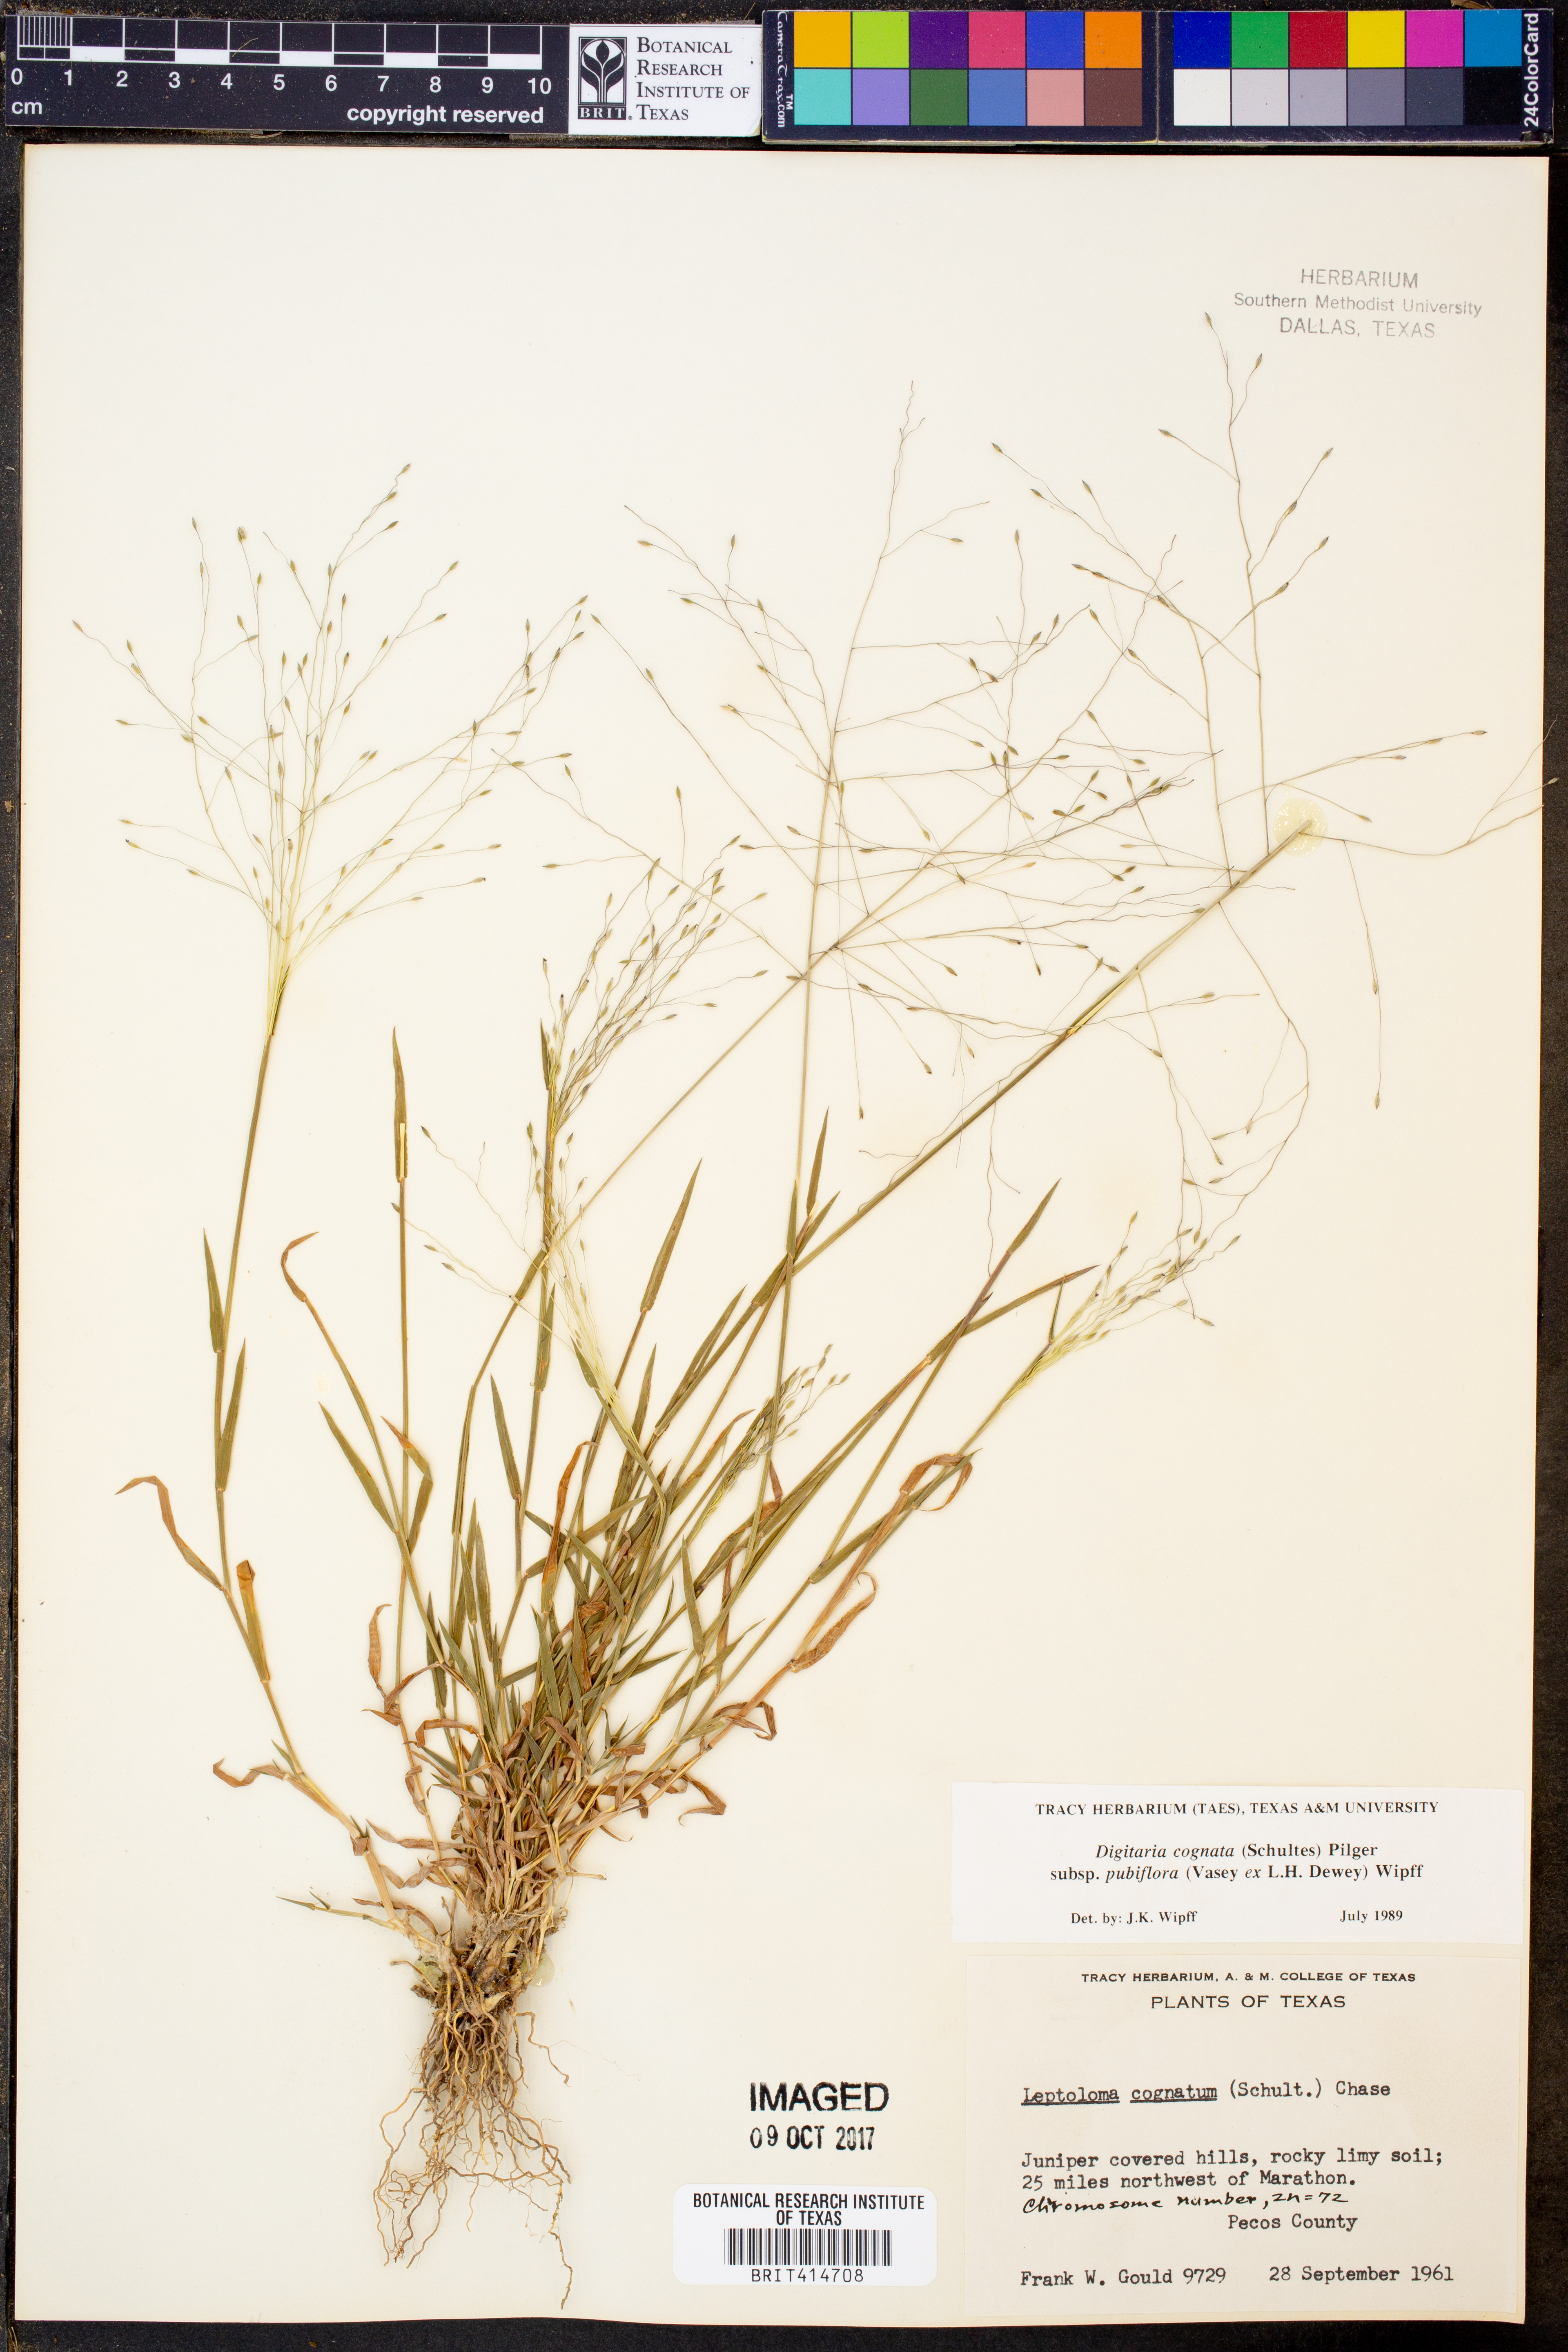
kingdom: Plantae
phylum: Tracheophyta
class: Liliopsida
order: Poales
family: Poaceae
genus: Digitaria
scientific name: Digitaria cognata
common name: Fall witchgrass
